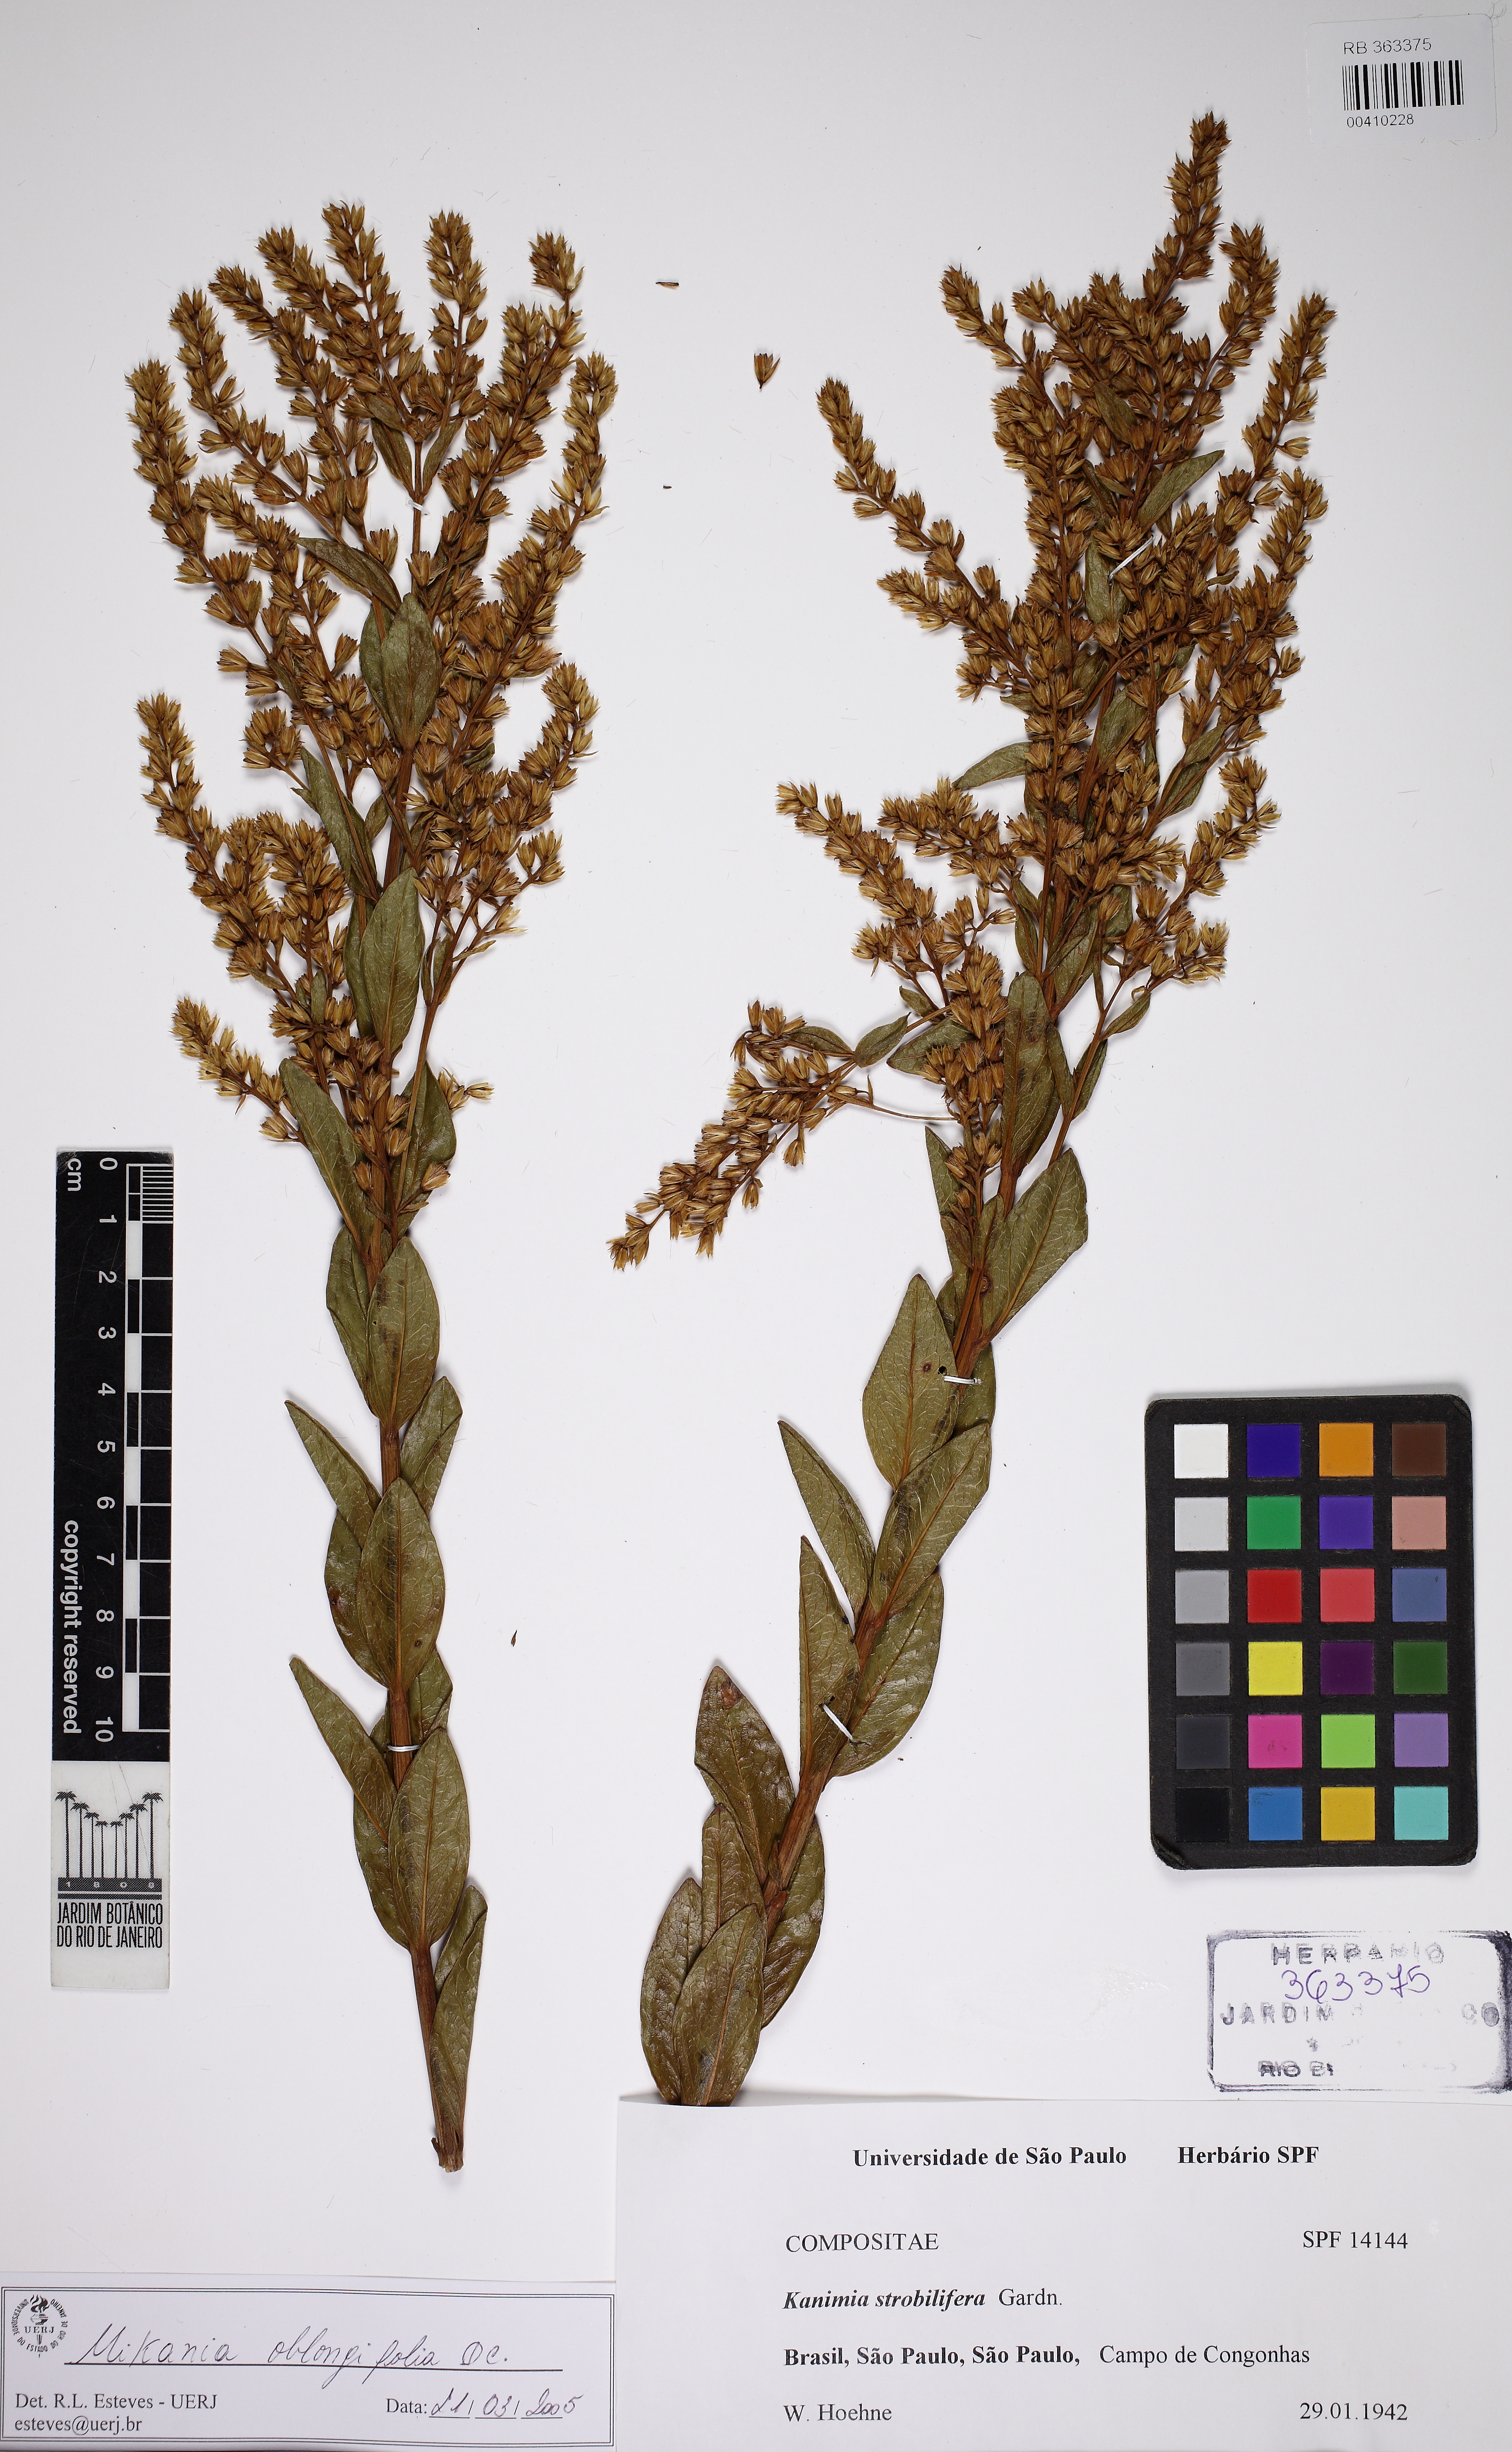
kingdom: Plantae
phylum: Tracheophyta
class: Magnoliopsida
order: Asterales
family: Asteraceae
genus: Mikania
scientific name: Mikania oblongifolia
